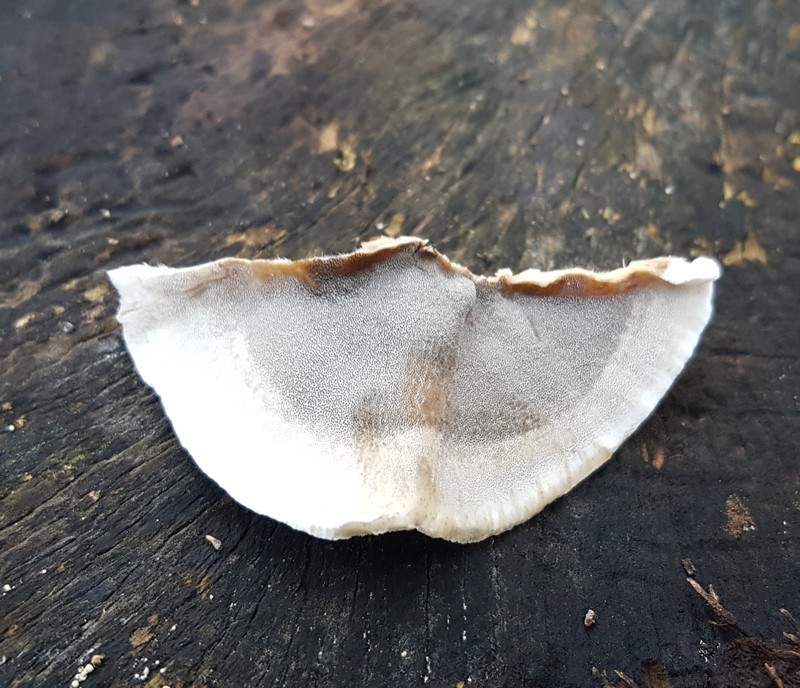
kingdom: Fungi
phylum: Basidiomycota
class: Agaricomycetes
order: Polyporales
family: Phanerochaetaceae
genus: Bjerkandera
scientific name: Bjerkandera adusta
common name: sveden sodporesvamp
